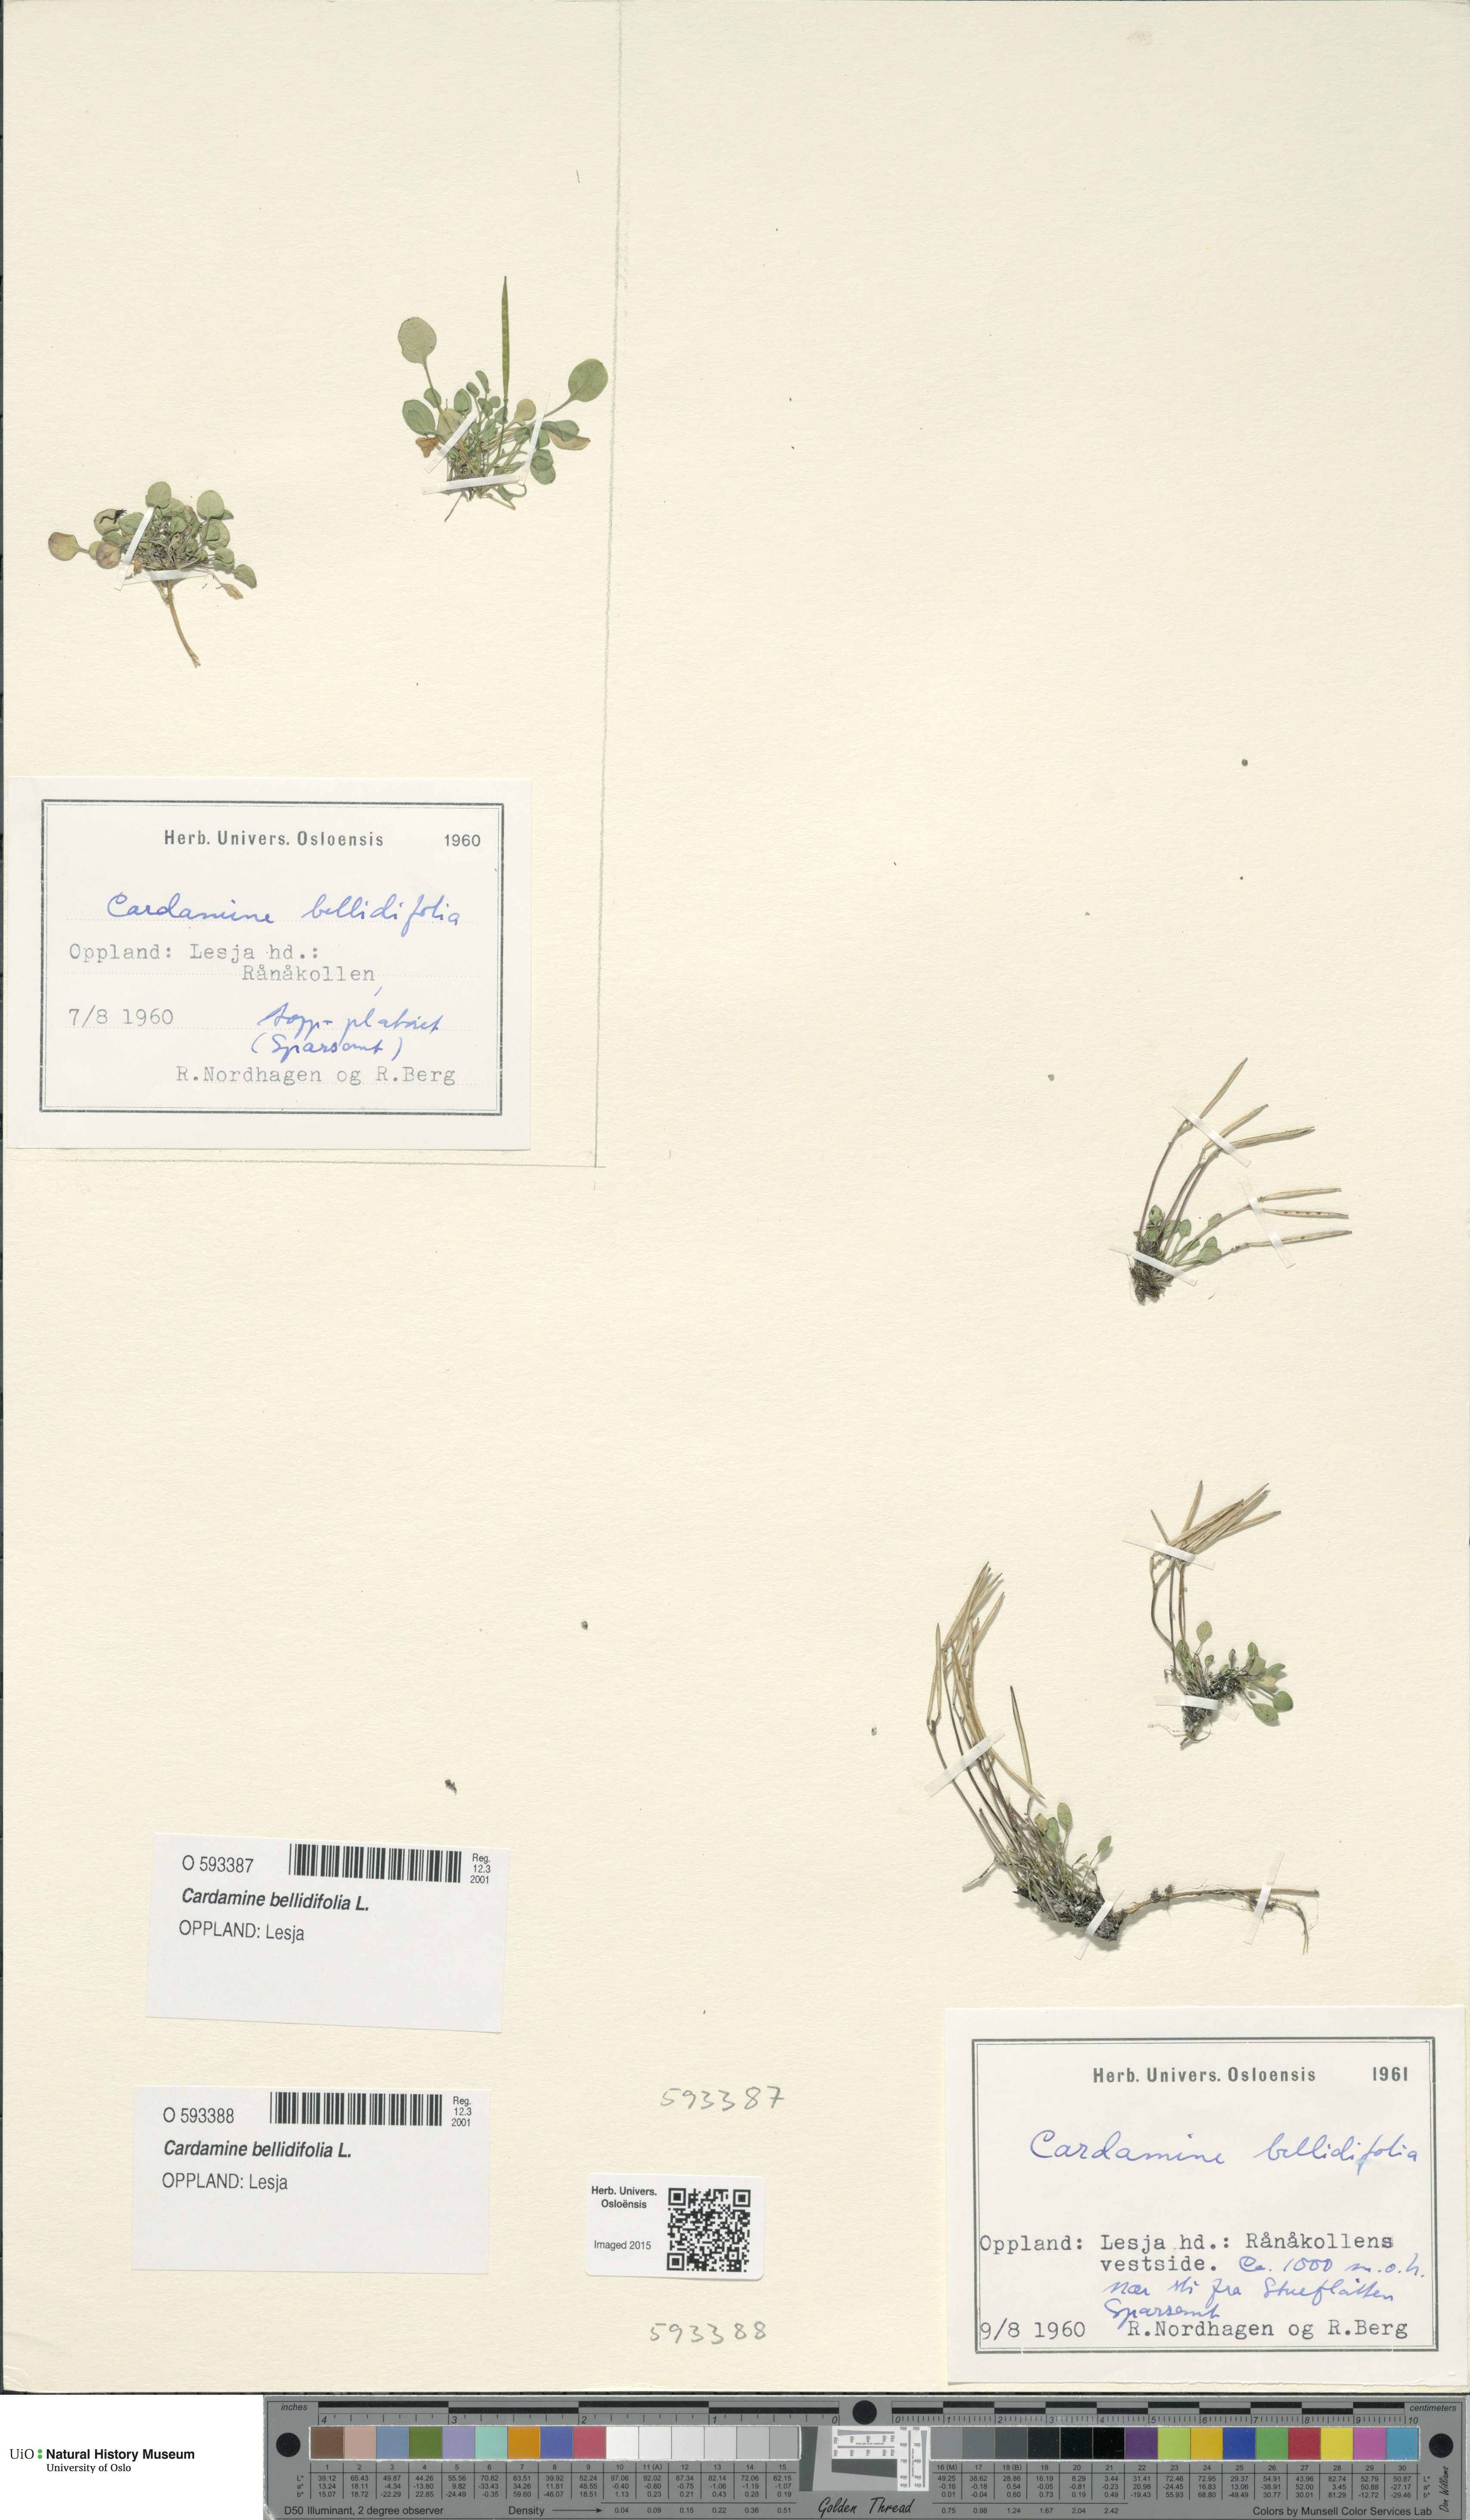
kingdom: Plantae
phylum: Tracheophyta
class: Magnoliopsida
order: Brassicales
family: Brassicaceae
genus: Cardamine
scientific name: Cardamine bellidifolia
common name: Alpine bittercress
